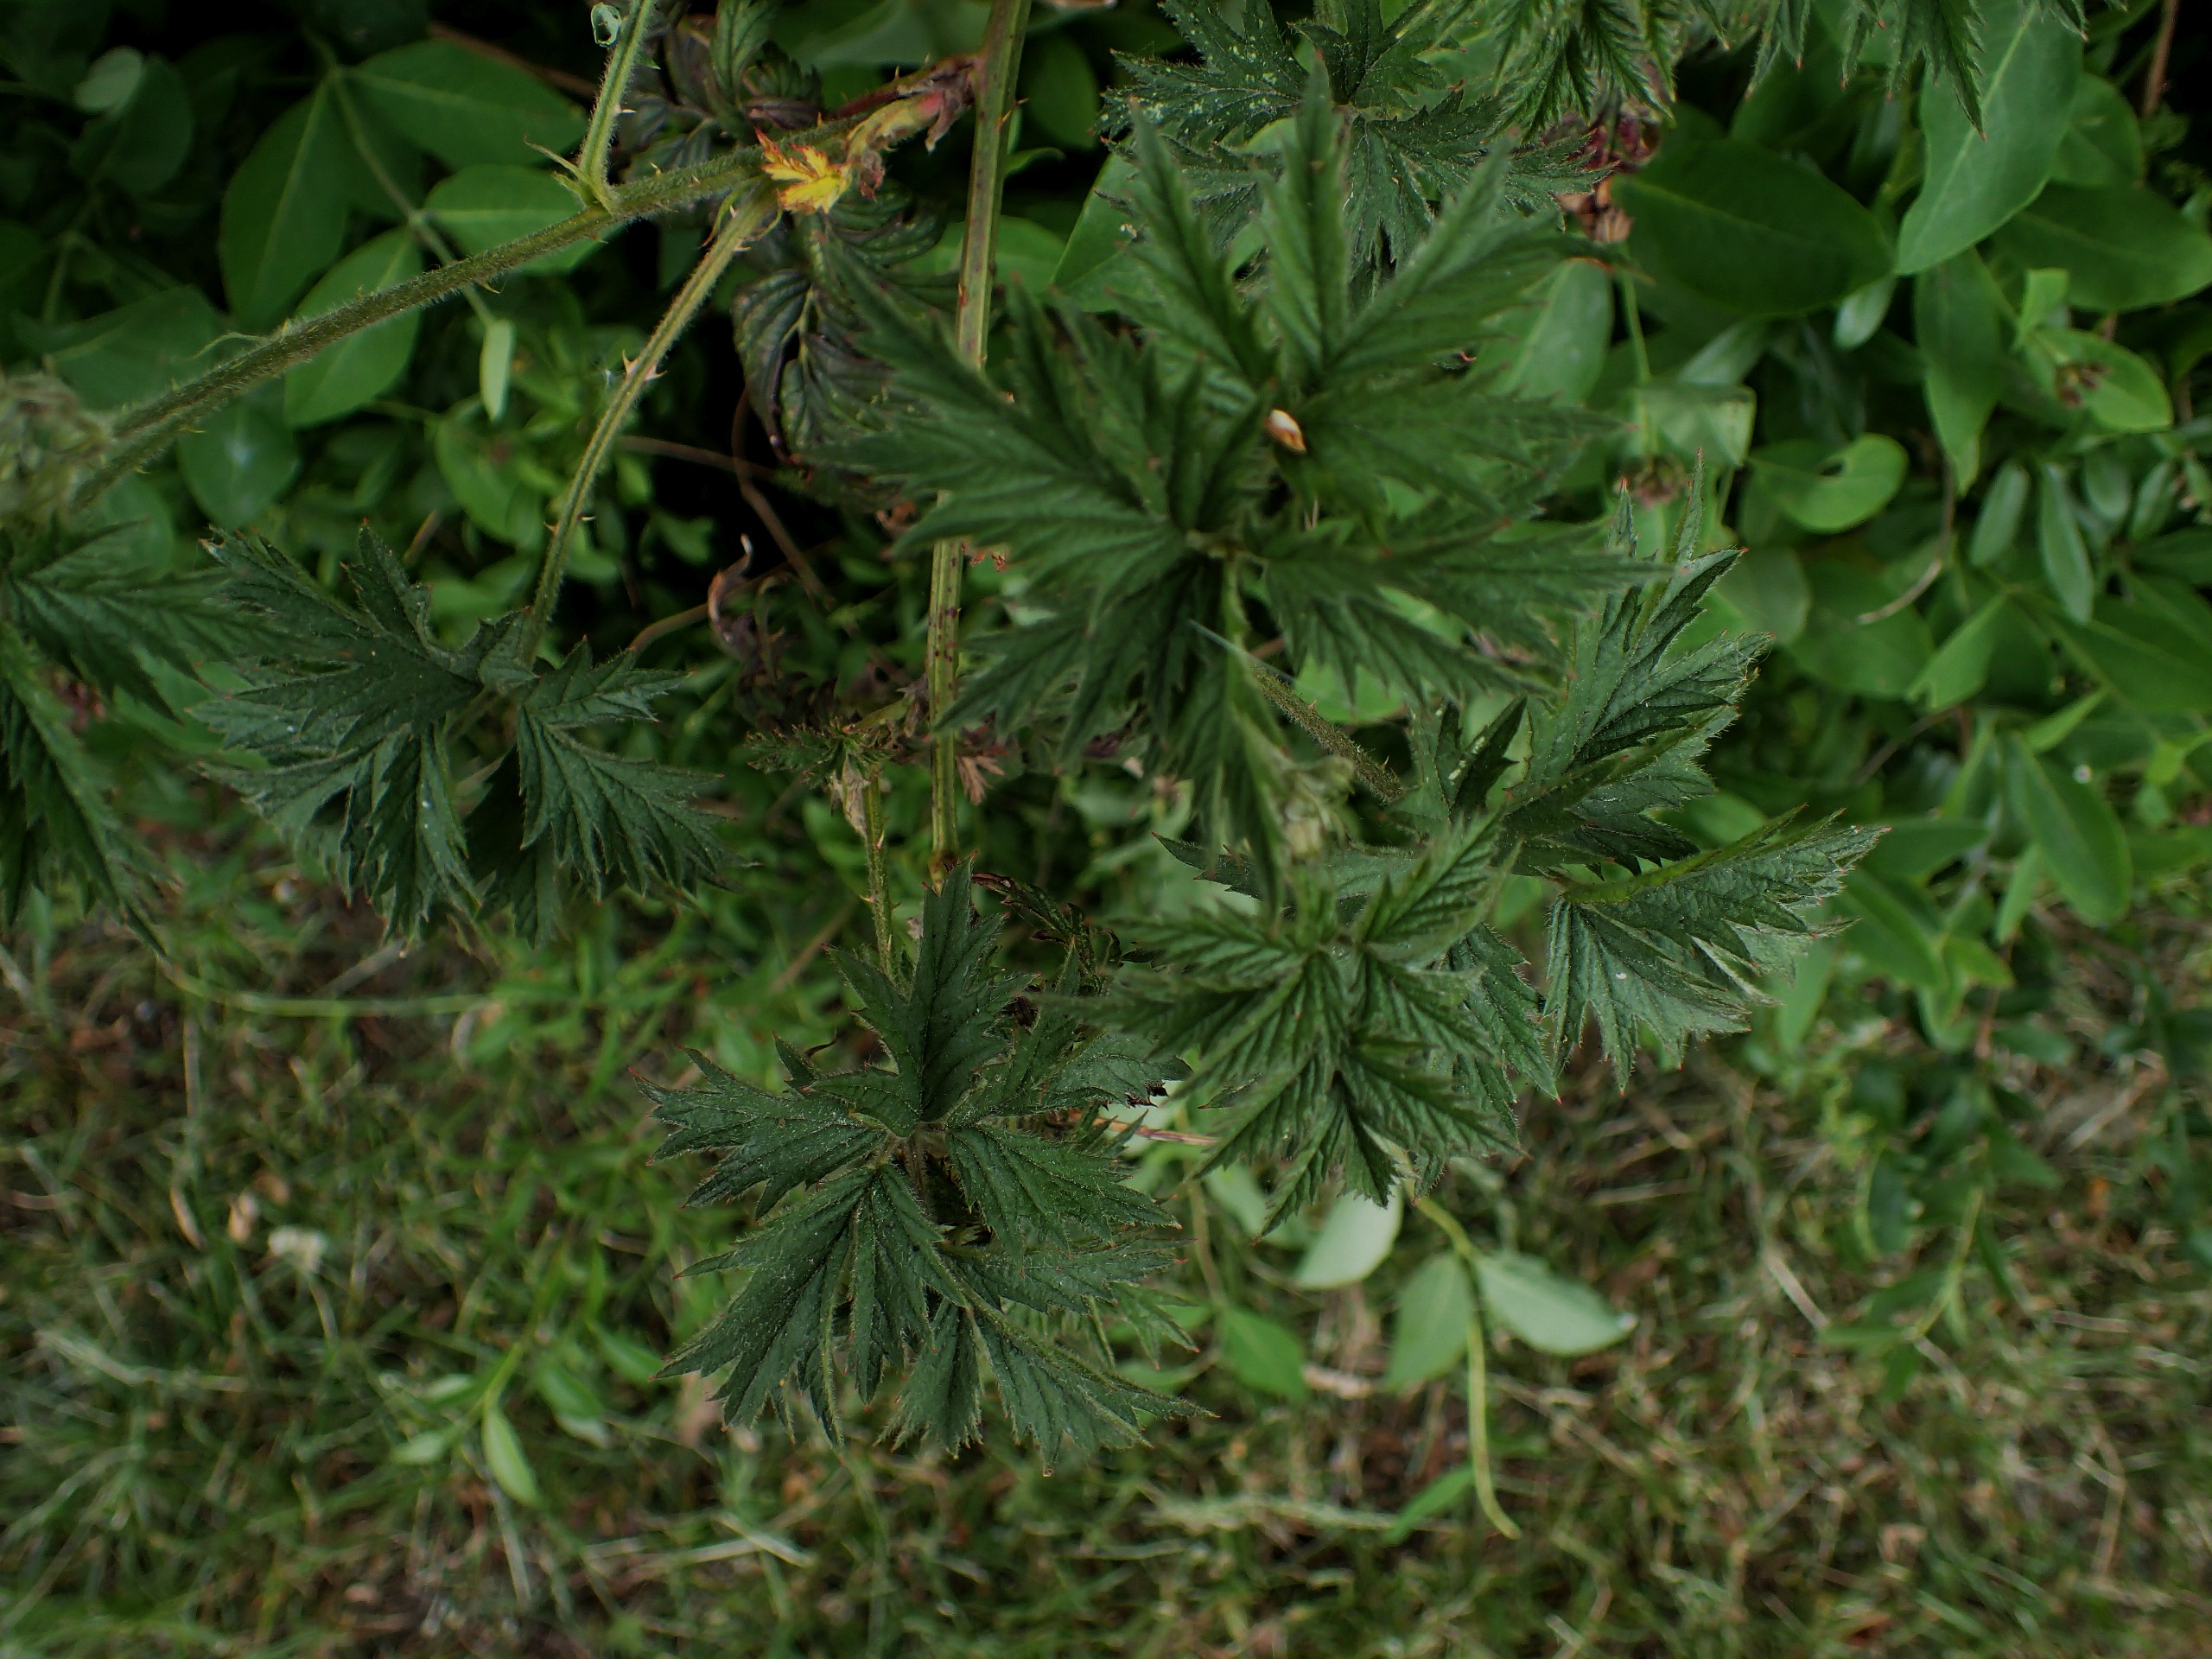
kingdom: Plantae
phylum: Tracheophyta
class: Magnoliopsida
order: Rosales
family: Rosaceae
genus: Rubus
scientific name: Rubus laciniatus
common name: Fliget brombær
